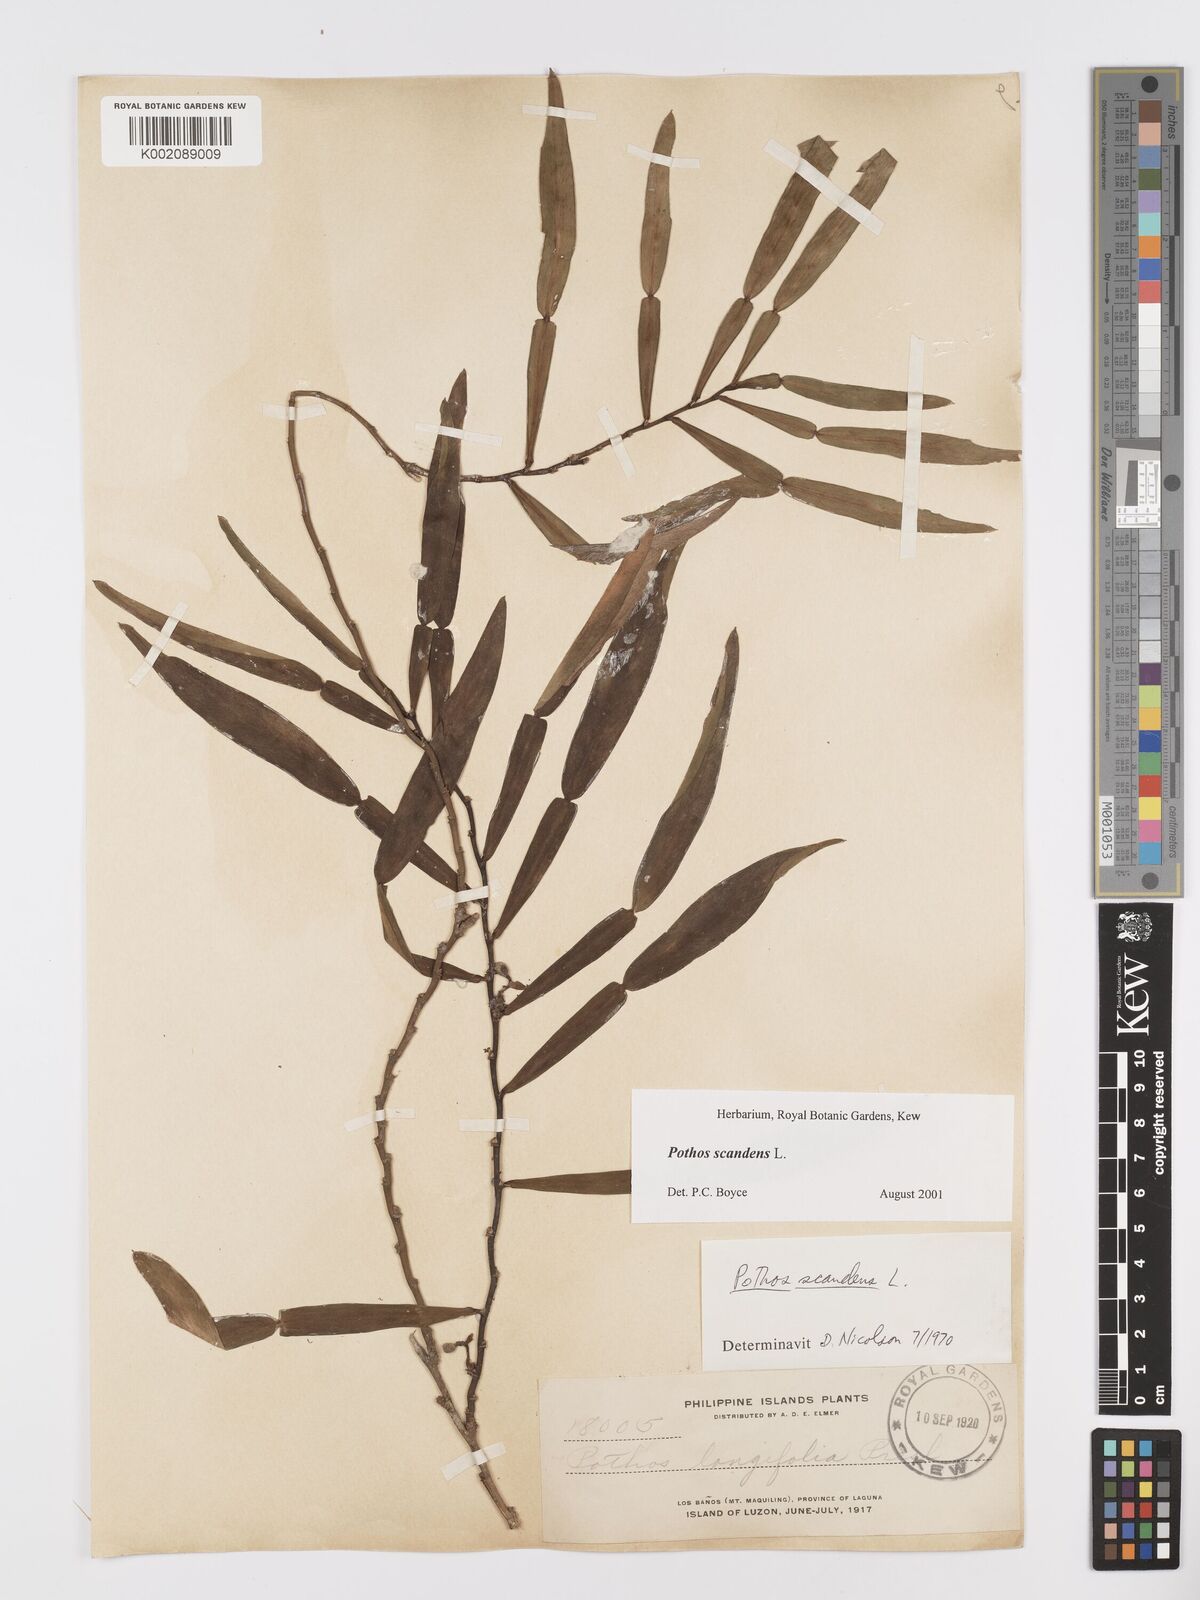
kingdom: Plantae
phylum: Tracheophyta
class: Liliopsida
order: Alismatales
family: Araceae
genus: Pothos
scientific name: Pothos scandens
